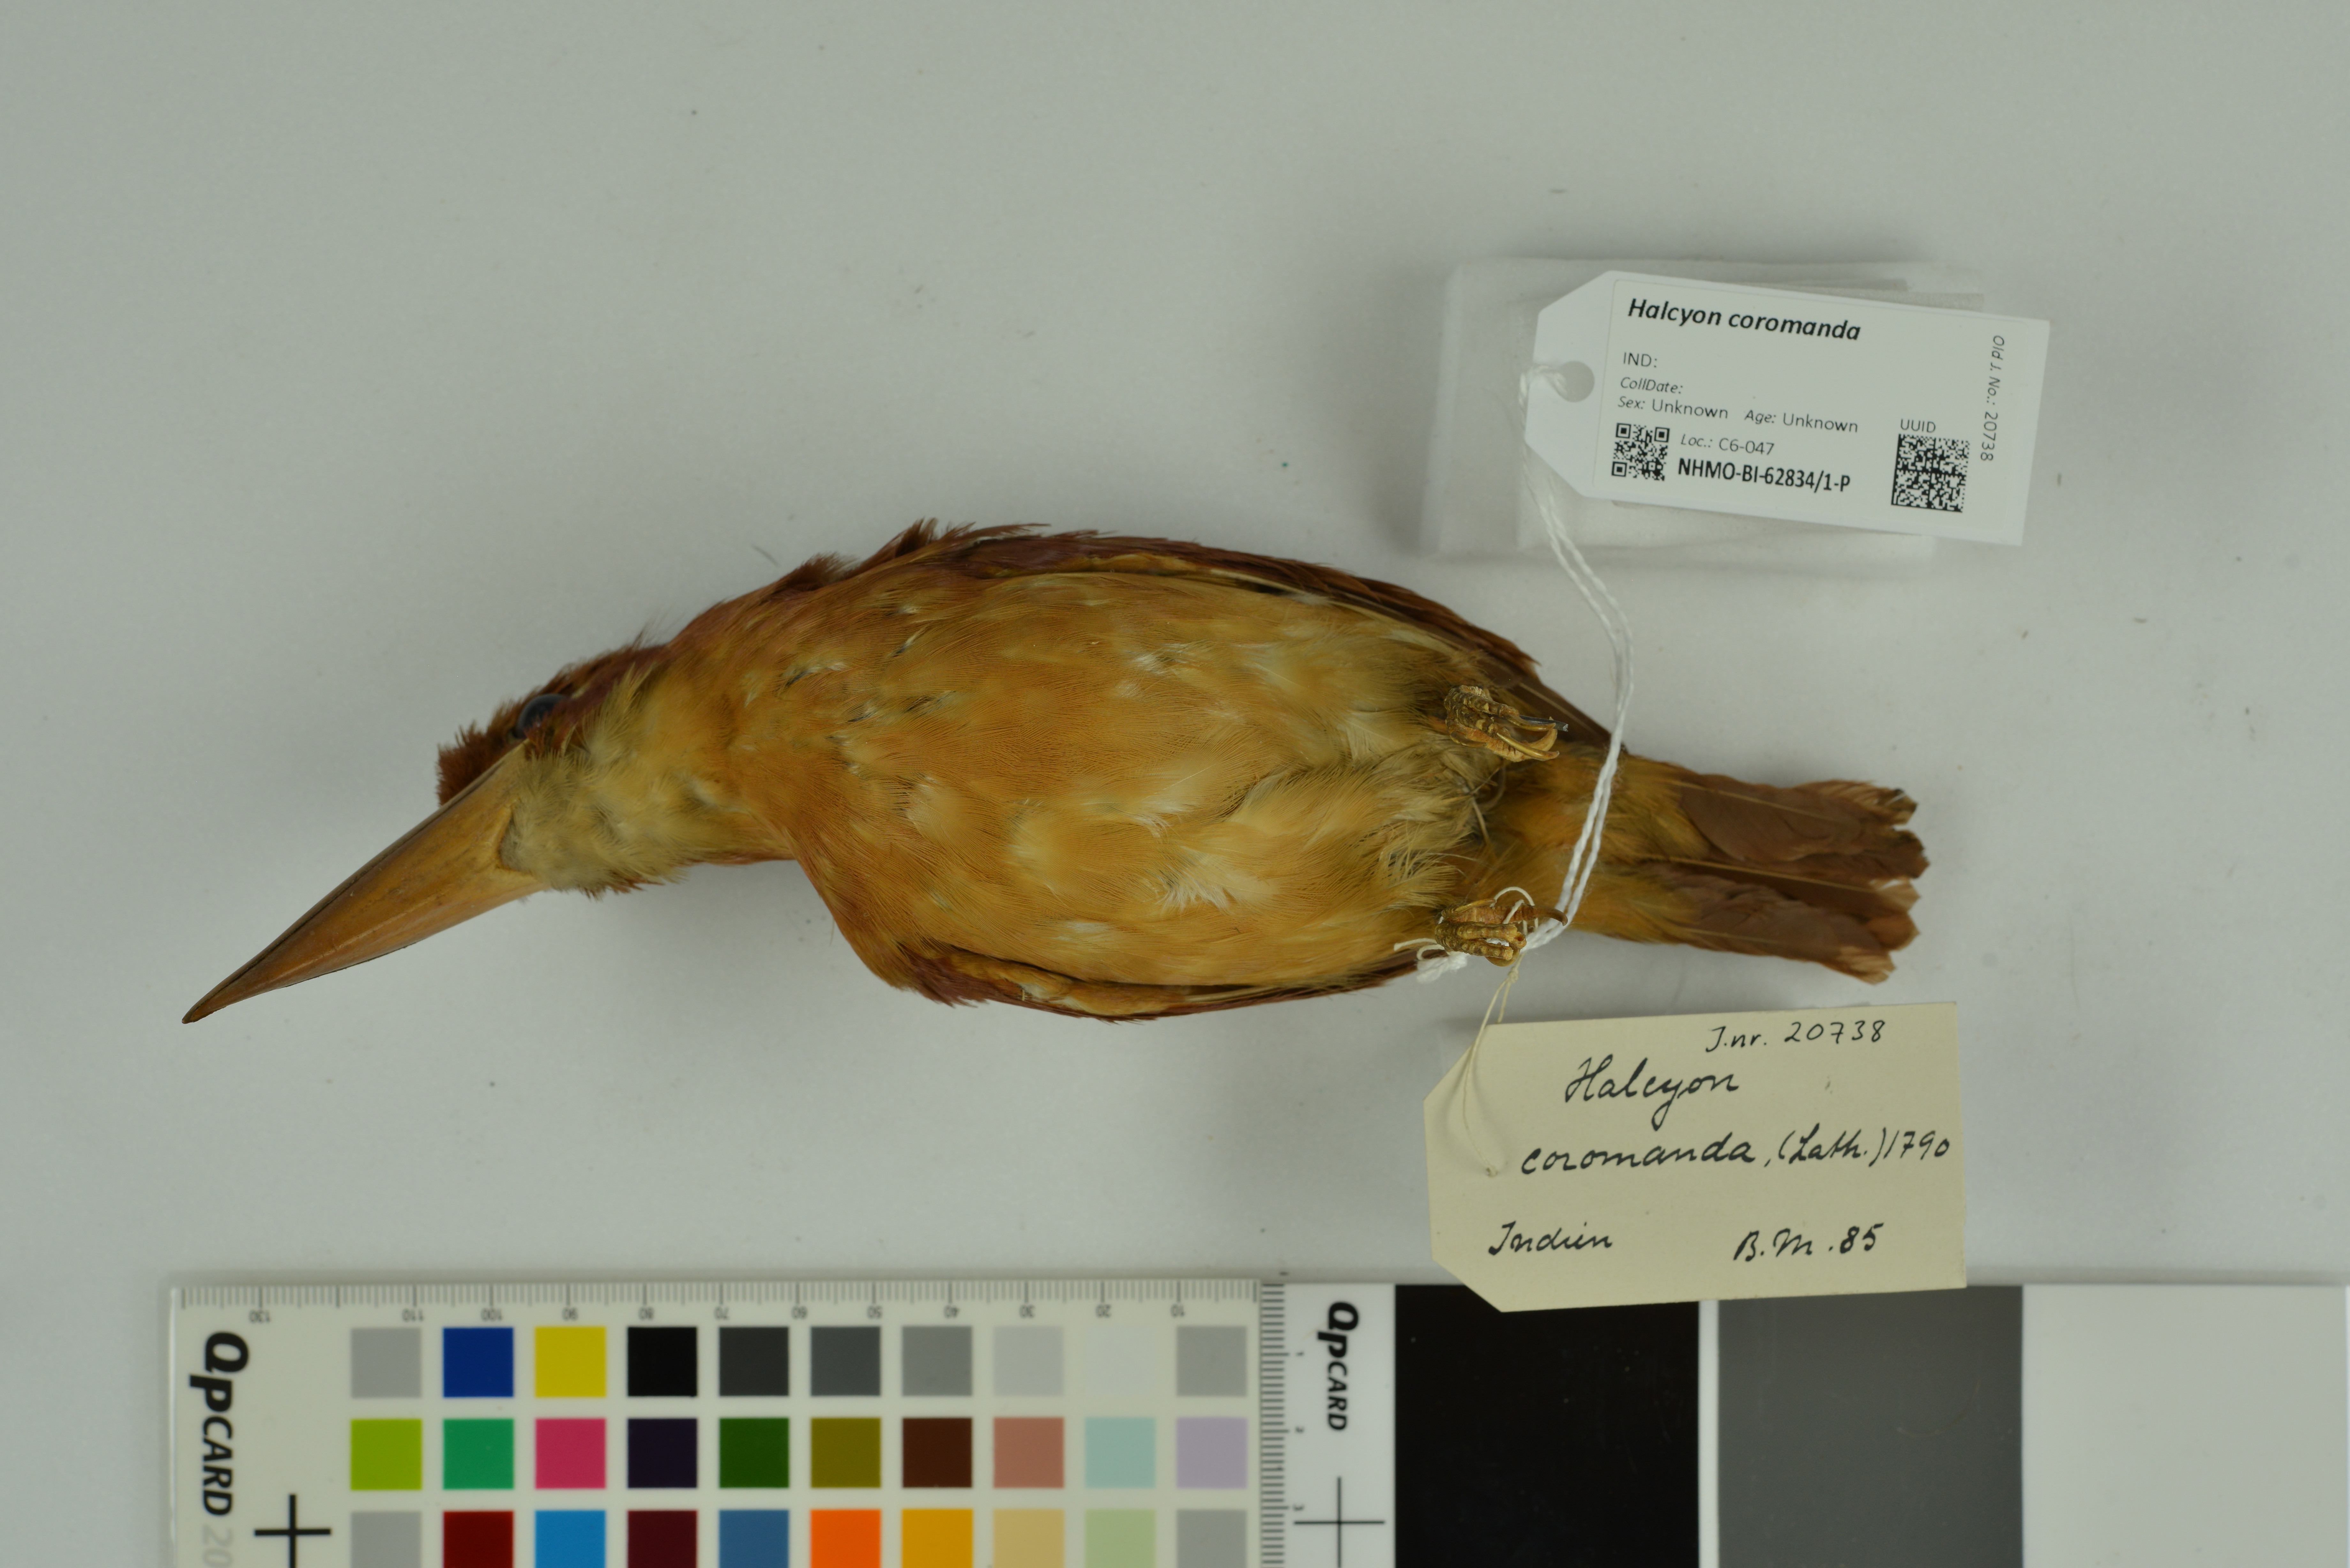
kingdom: Animalia
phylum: Chordata
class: Aves
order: Coraciiformes
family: Alcedinidae
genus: Halcyon
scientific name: Halcyon coromanda
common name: Ruddy kingfisher
